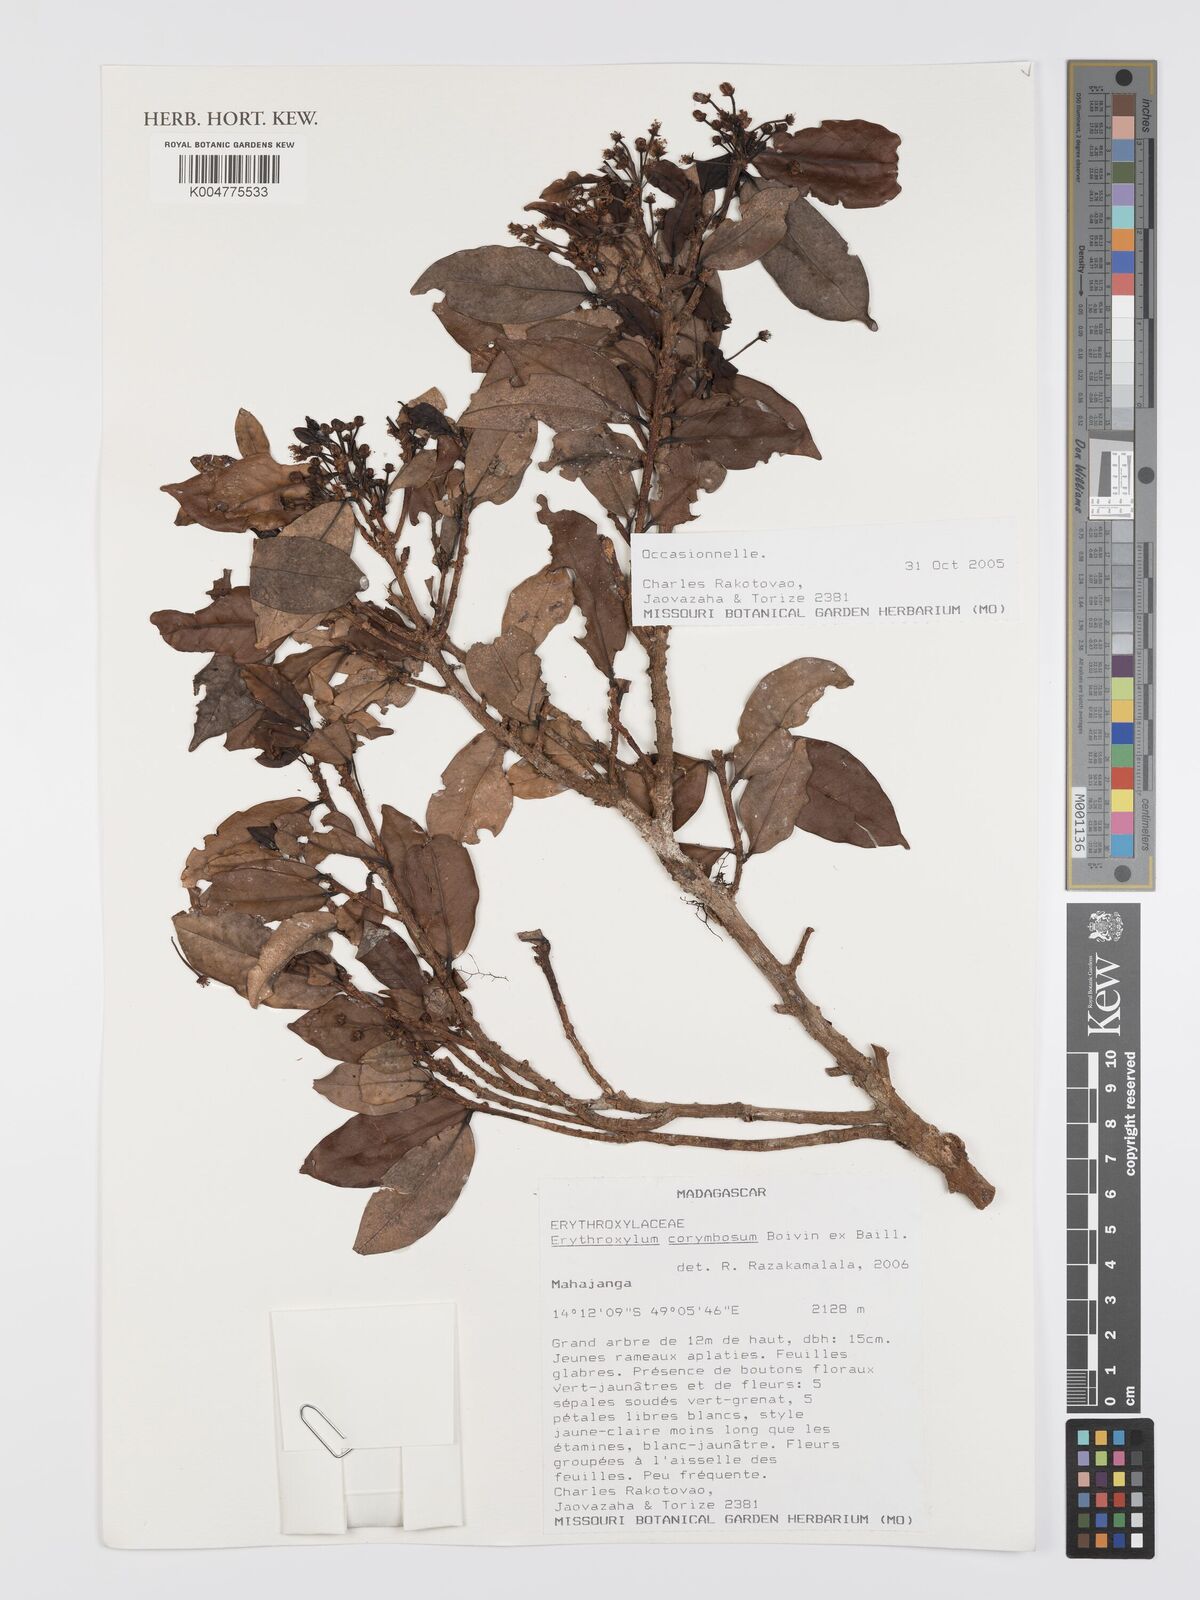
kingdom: Plantae
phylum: Tracheophyta
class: Magnoliopsida
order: Malpighiales
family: Erythroxylaceae
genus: Erythroxylum
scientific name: Erythroxylum corymbosum
